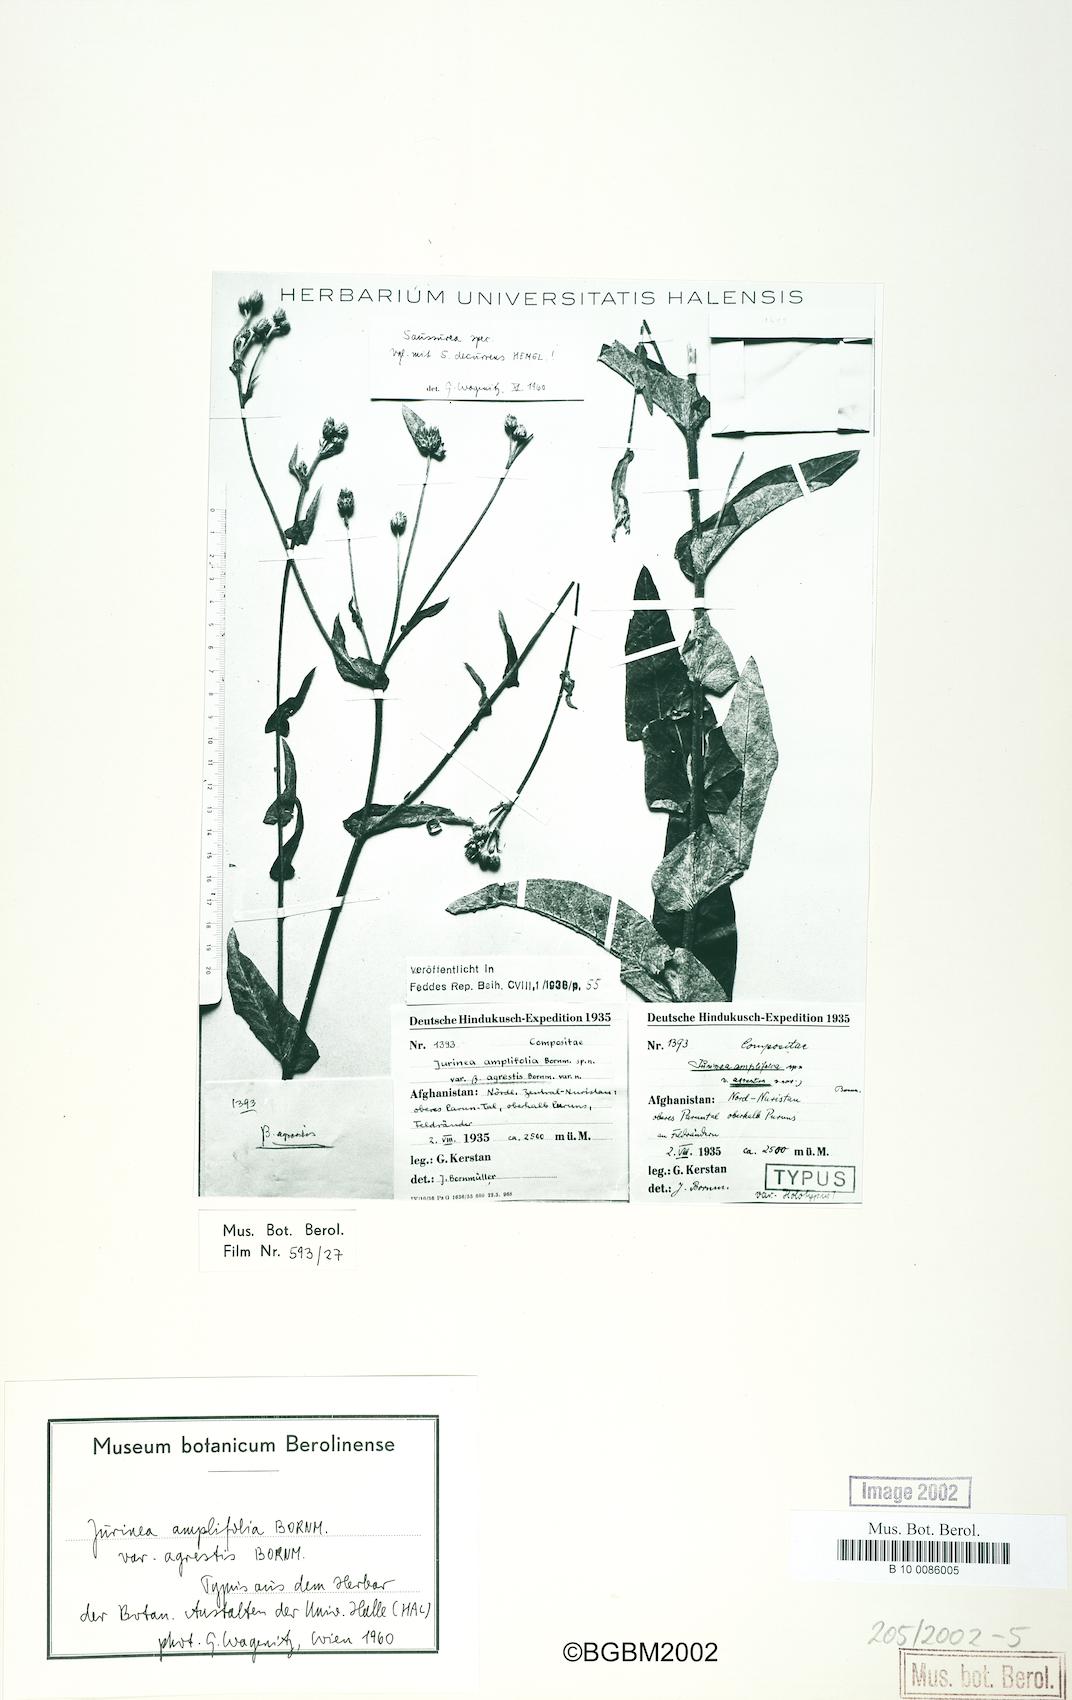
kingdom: Plantae
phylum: Tracheophyta
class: Magnoliopsida
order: Asterales
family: Asteraceae
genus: Jurinea
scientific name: Jurinea chitralica
